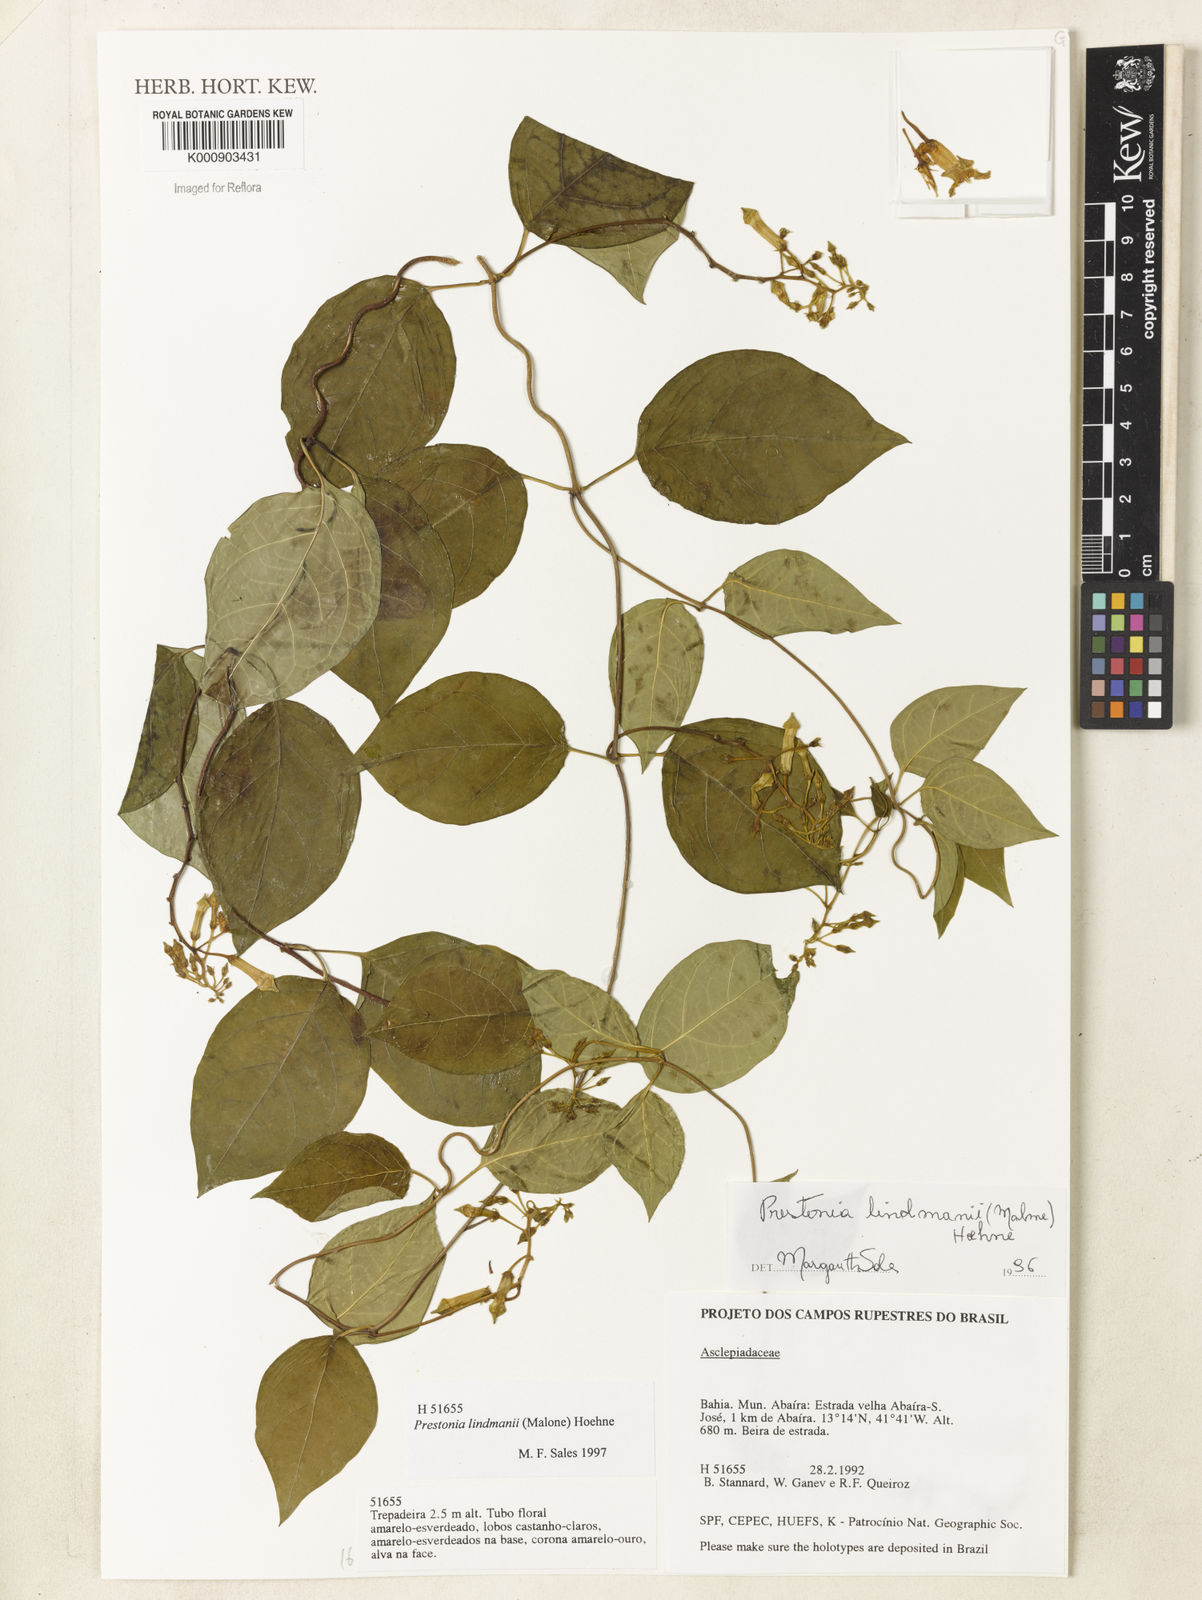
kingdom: Plantae
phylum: Tracheophyta
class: Magnoliopsida
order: Gentianales
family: Apocynaceae
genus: Prestonia
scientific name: Prestonia lindmanii
